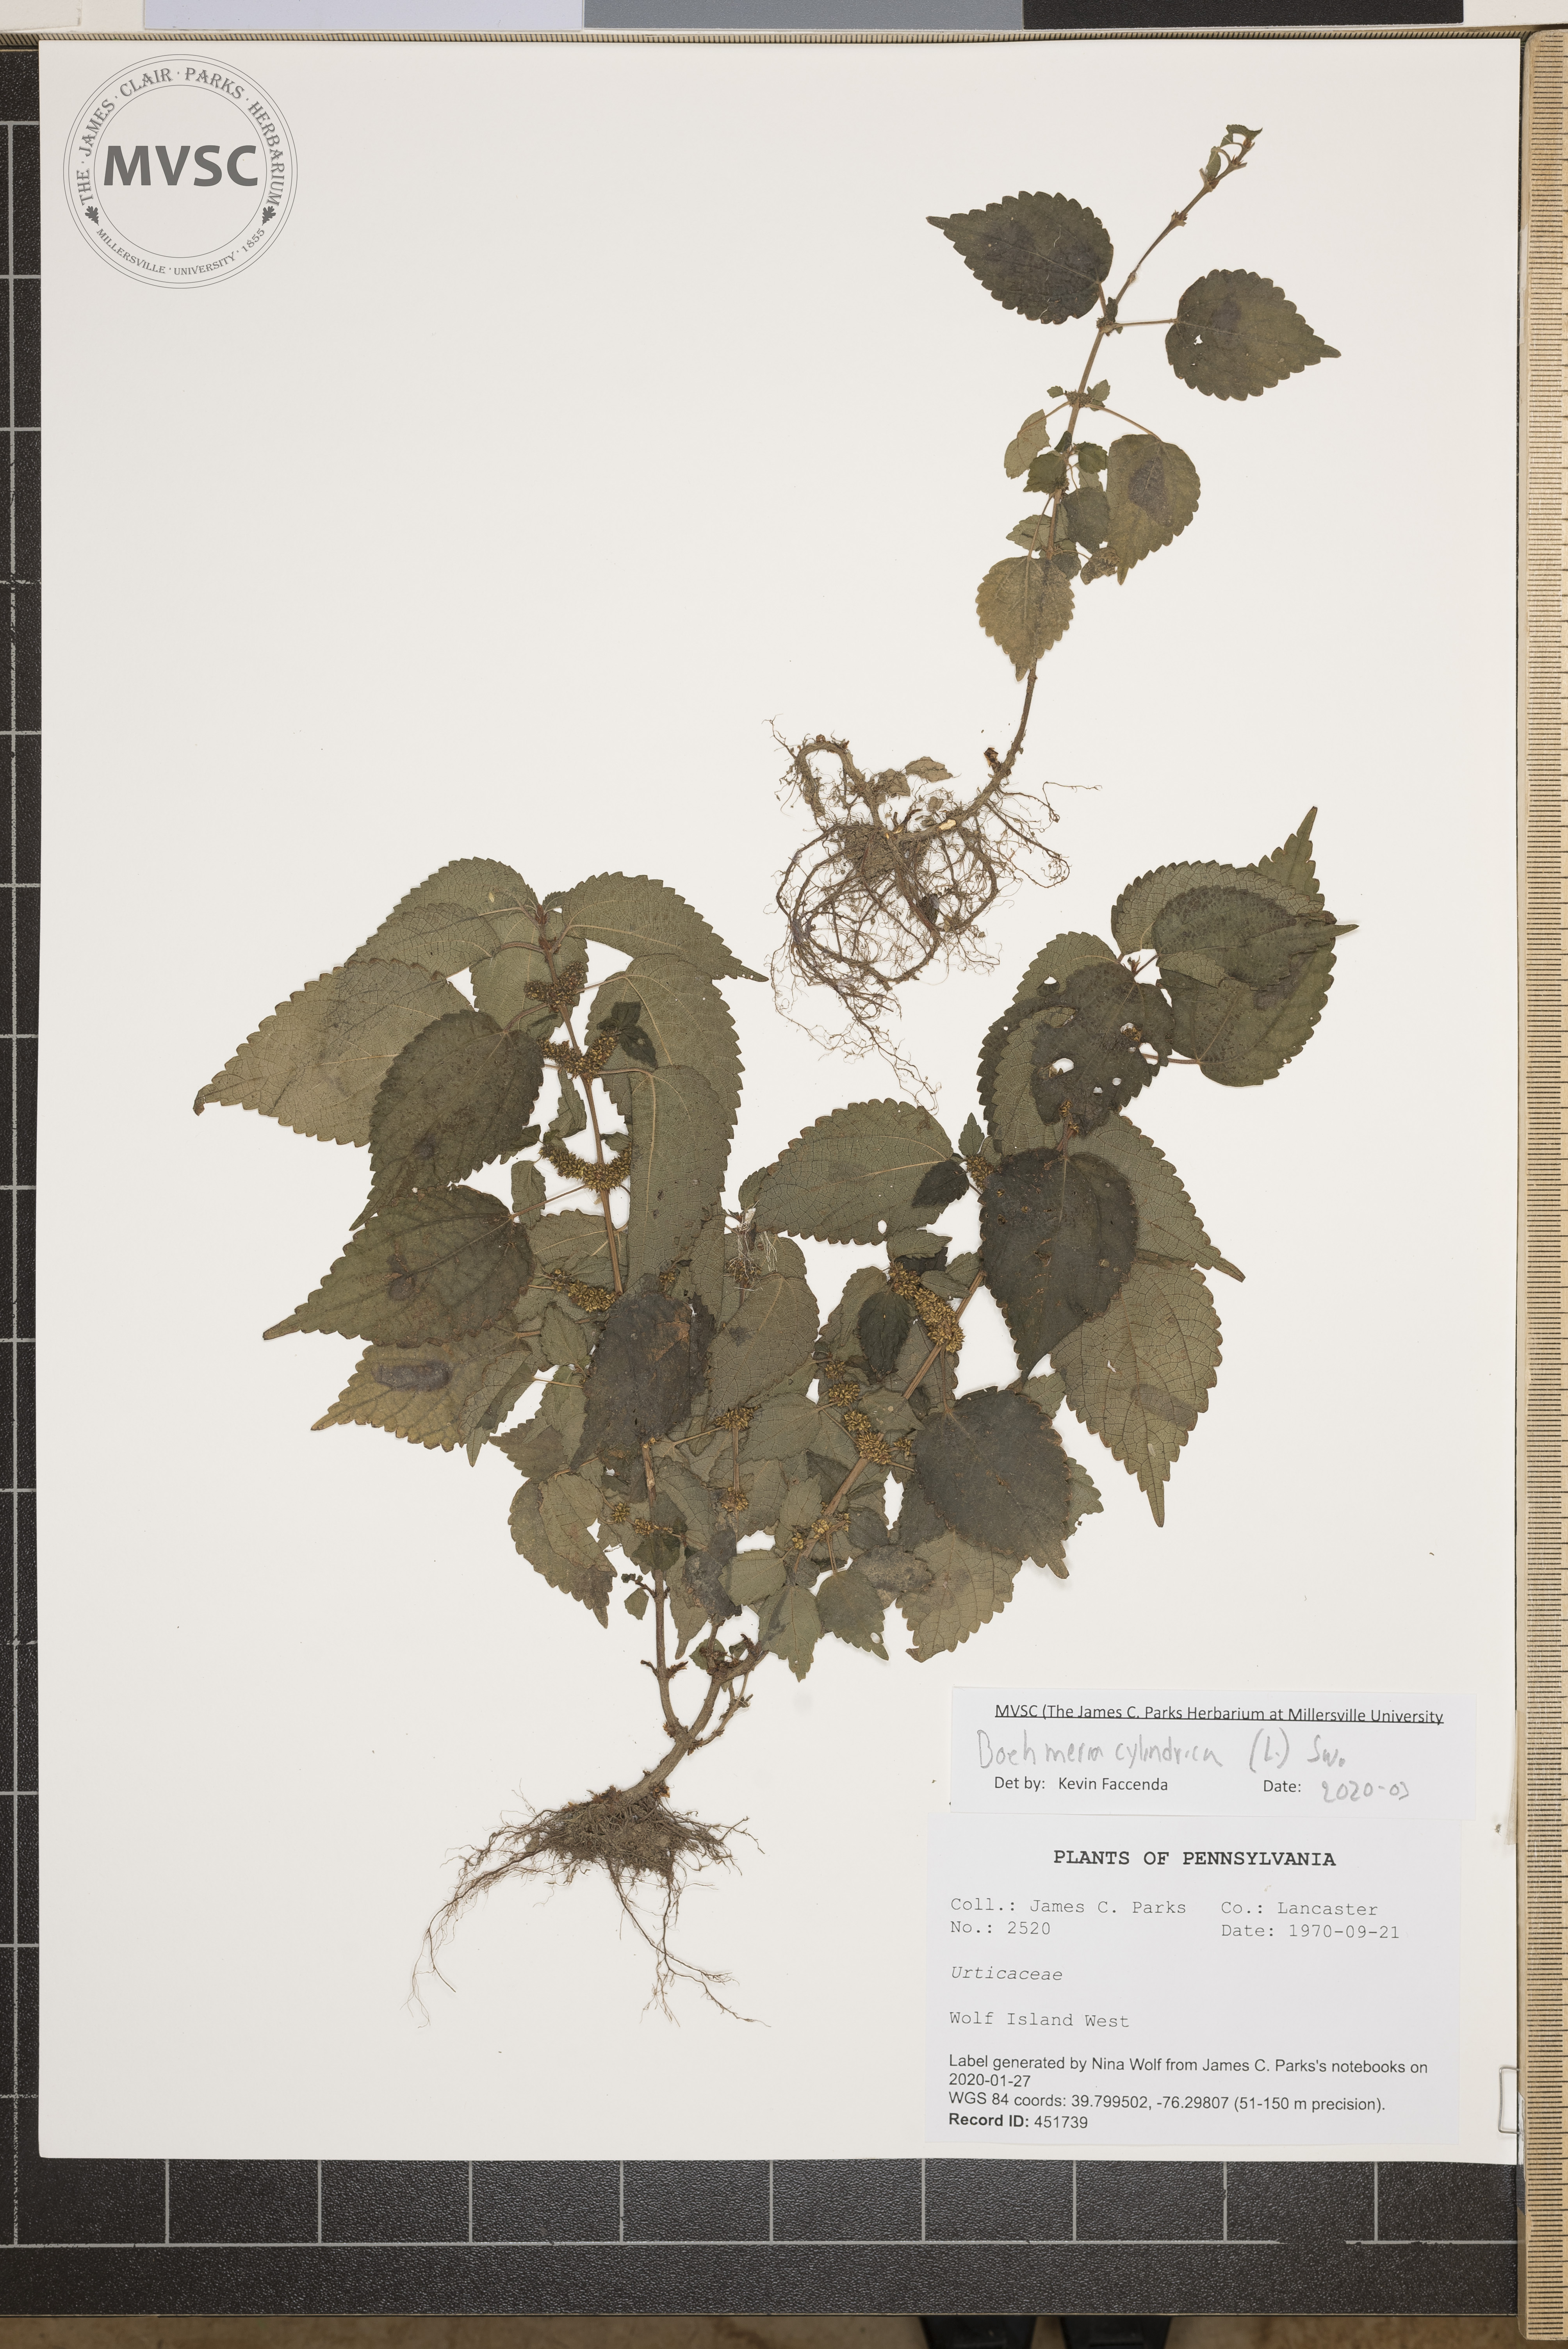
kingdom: Plantae
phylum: Tracheophyta
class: Magnoliopsida
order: Rosales
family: Urticaceae
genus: Boehmeria
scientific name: Boehmeria cylindrica
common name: Bog-hemp
